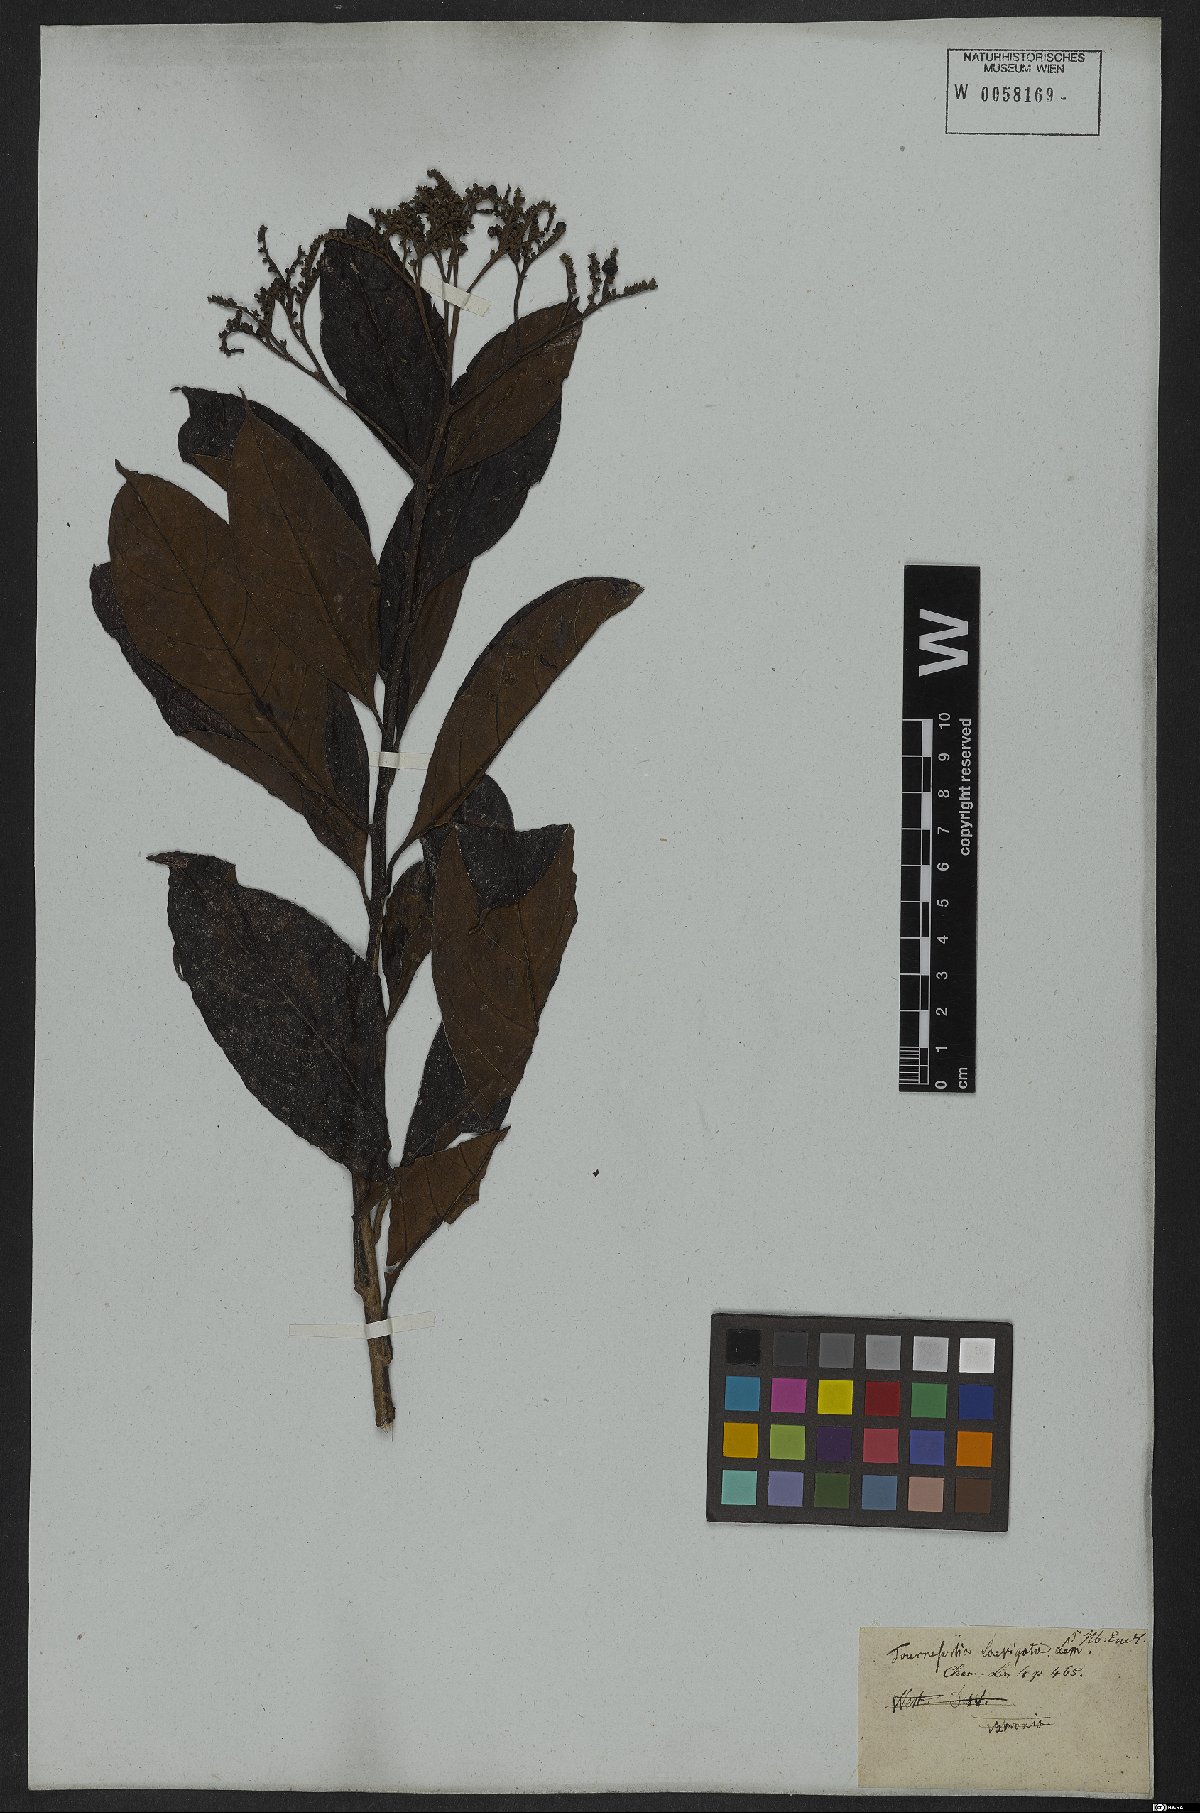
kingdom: Plantae
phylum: Tracheophyta
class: Magnoliopsida
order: Boraginales
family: Heliotropiaceae
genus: Heliotropium
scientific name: Heliotropium verdcourtii
